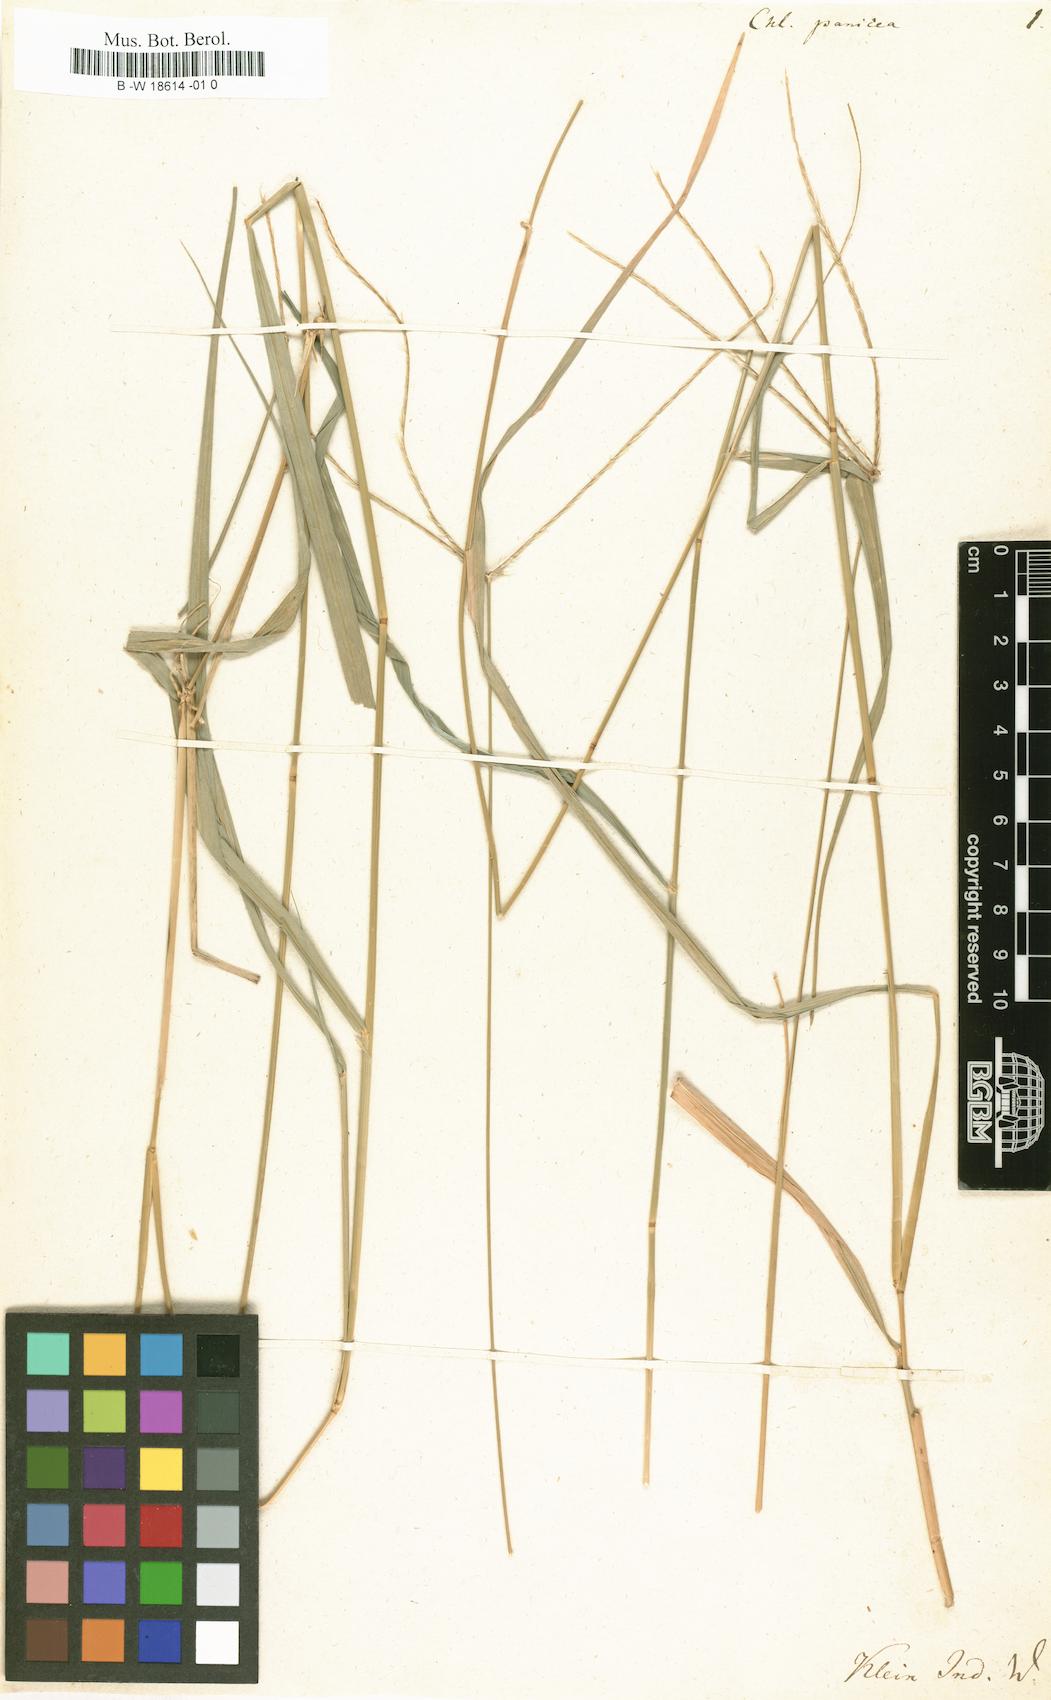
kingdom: Plantae
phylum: Tracheophyta
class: Liliopsida
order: Poales
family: Poaceae
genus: Enteropogon
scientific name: Enteropogon dolichostachyus
